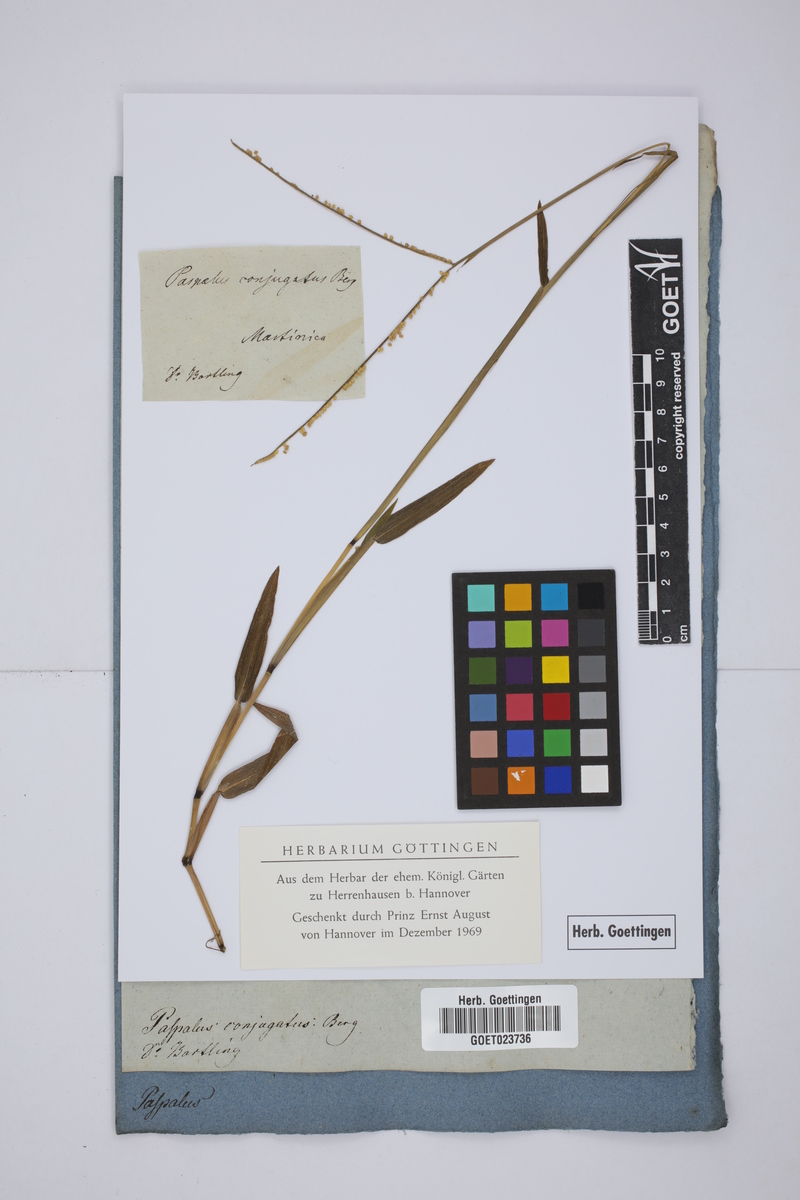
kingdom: Plantae
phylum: Tracheophyta
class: Liliopsida
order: Poales
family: Poaceae
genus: Paspalum
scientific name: Paspalum conjugatum
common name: Hilograss
